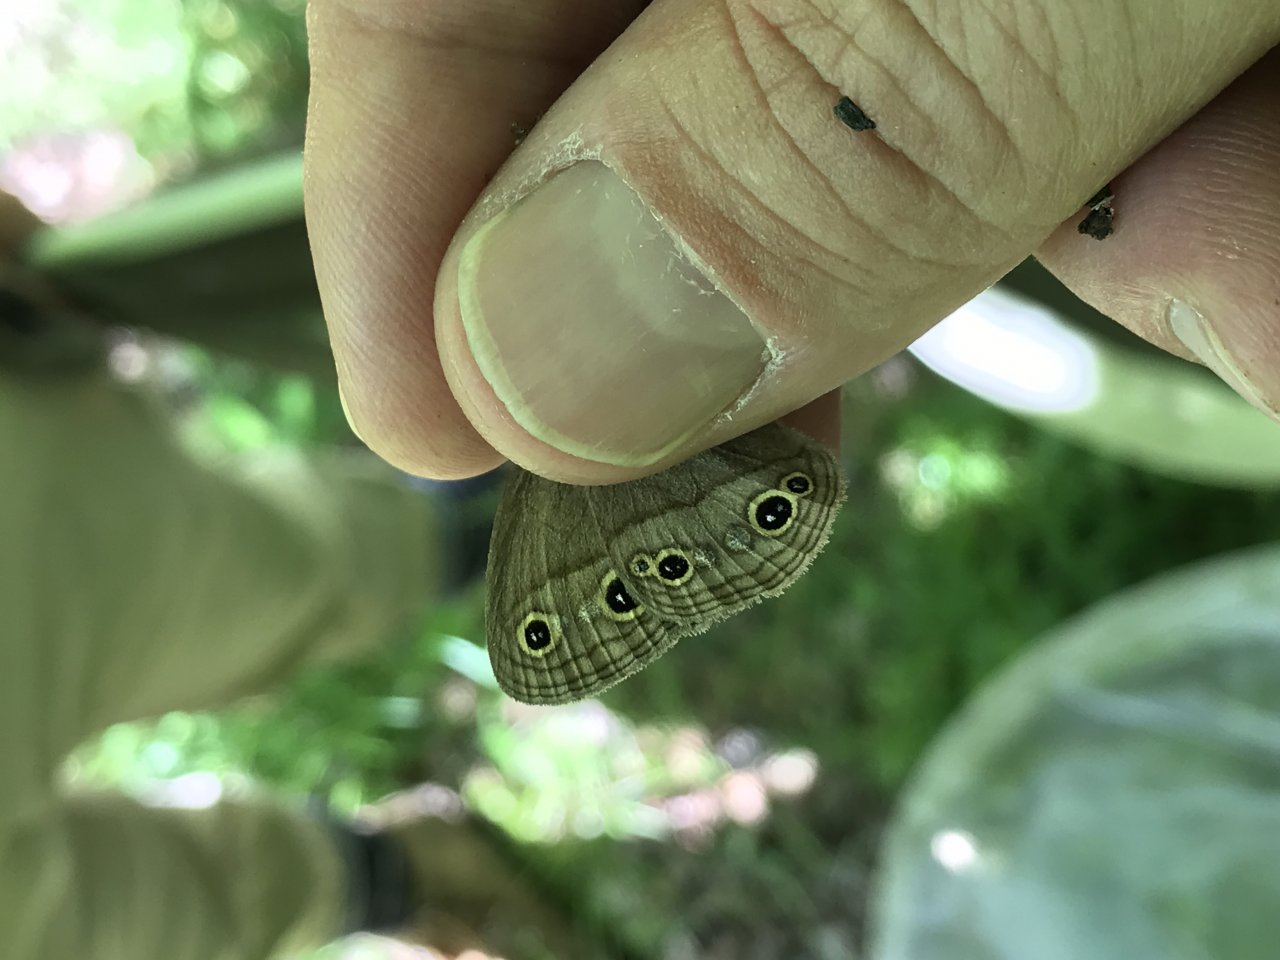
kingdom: Animalia
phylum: Arthropoda
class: Insecta
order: Lepidoptera
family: Nymphalidae
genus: Euptychia
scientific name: Euptychia cymela
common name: Little Wood Satyr
